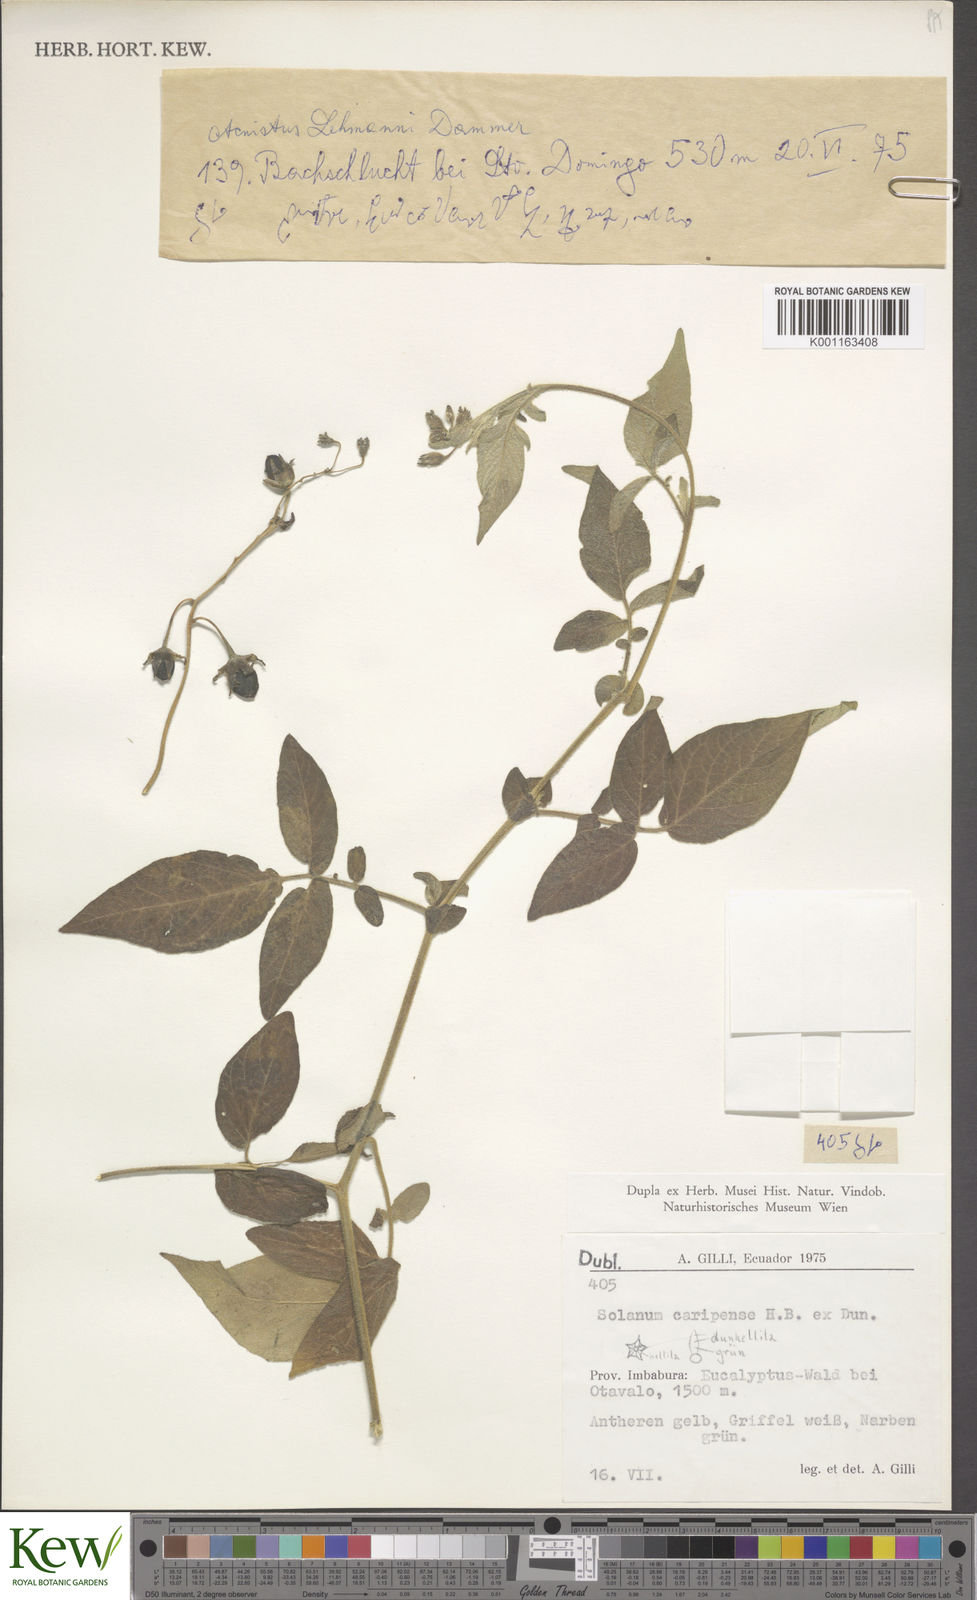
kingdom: Plantae
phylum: Tracheophyta
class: Magnoliopsida
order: Solanales
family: Solanaceae
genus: Solanum
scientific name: Solanum caripense
